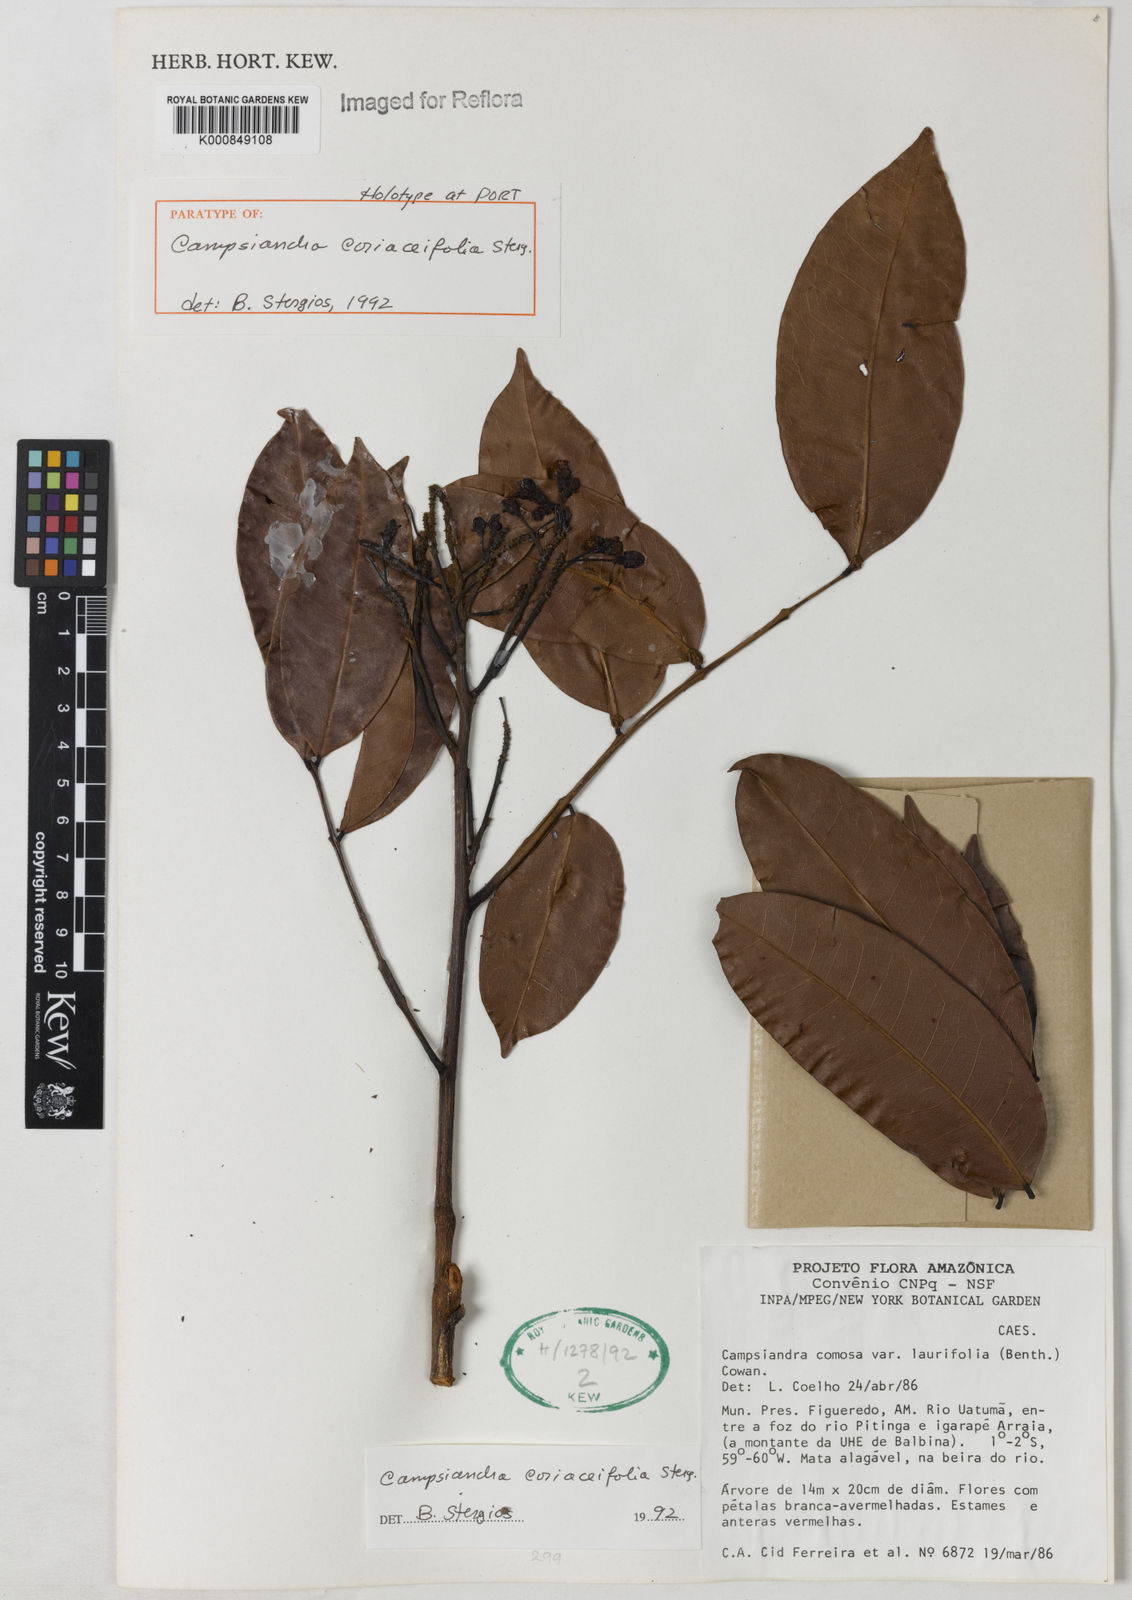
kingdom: Plantae
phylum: Tracheophyta
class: Magnoliopsida
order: Fabales
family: Fabaceae
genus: Campsiandra
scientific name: Campsiandra
